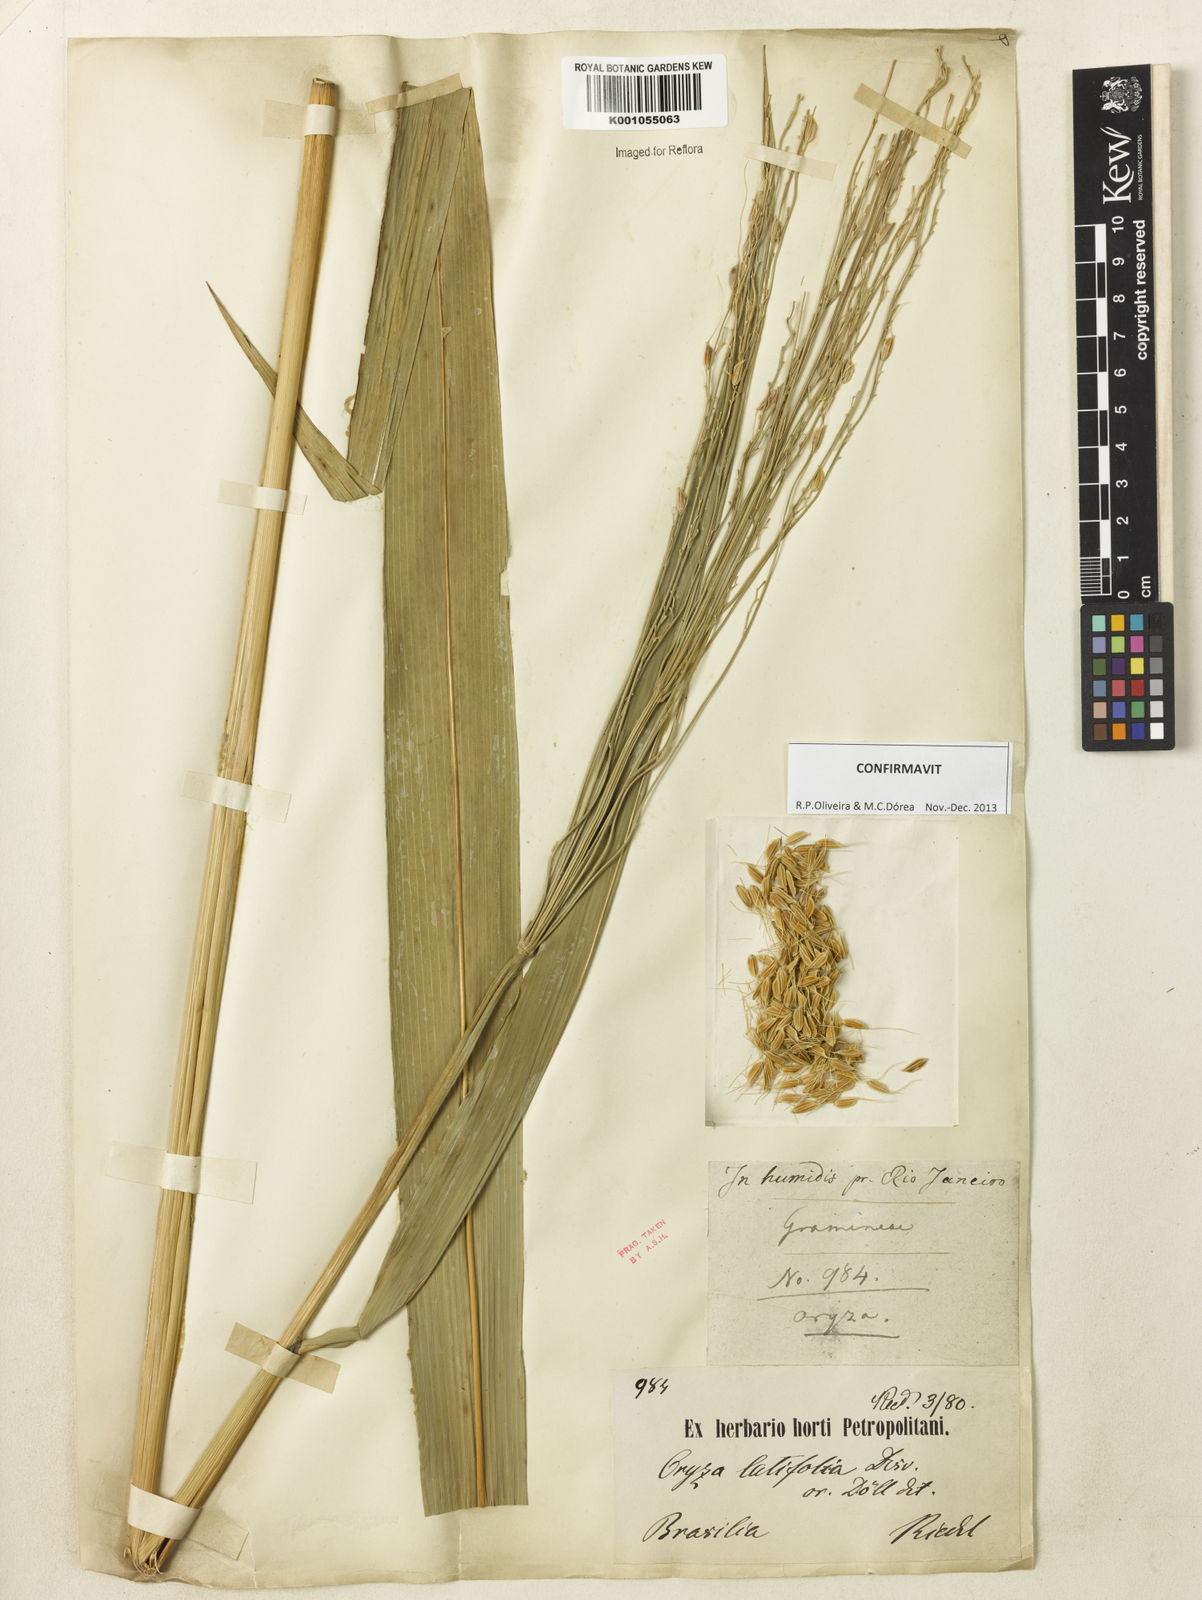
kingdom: Plantae
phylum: Tracheophyta
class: Liliopsida
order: Poales
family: Poaceae
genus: Oryza
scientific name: Oryza latifolia
